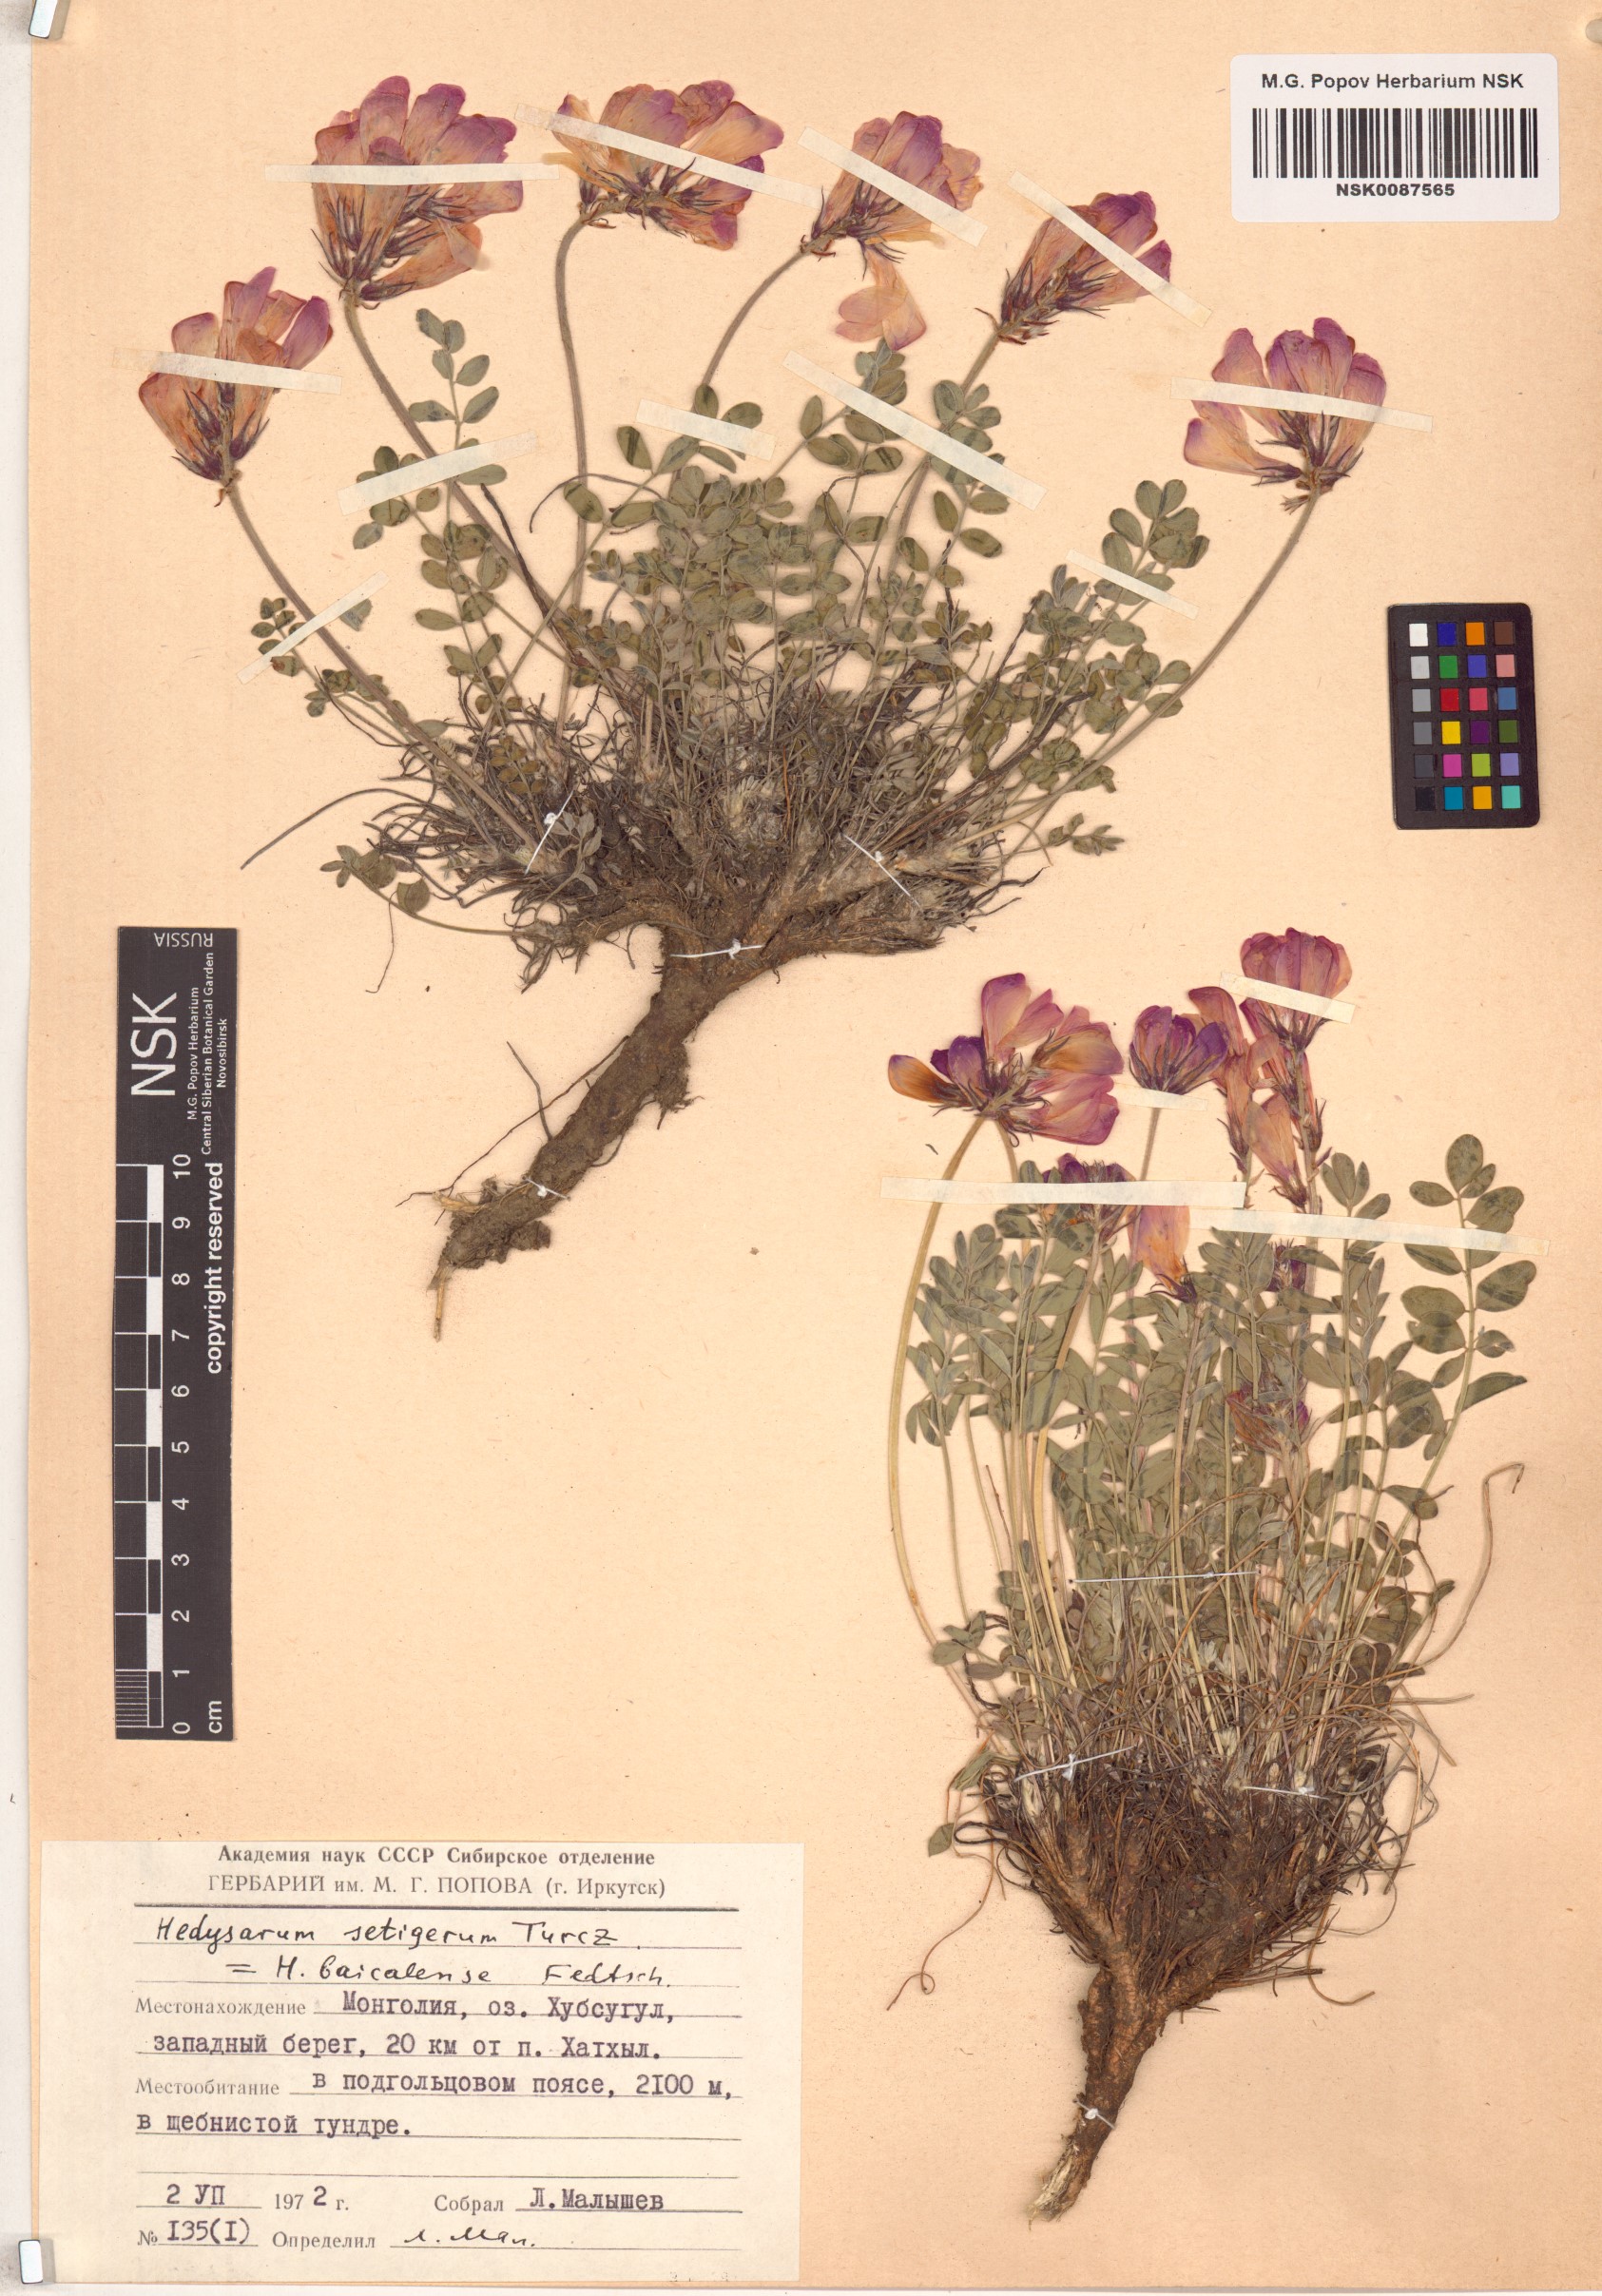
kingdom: Plantae
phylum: Tracheophyta
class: Magnoliopsida
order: Fabales
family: Fabaceae
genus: Hedysarum
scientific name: Hedysarum setigerum
